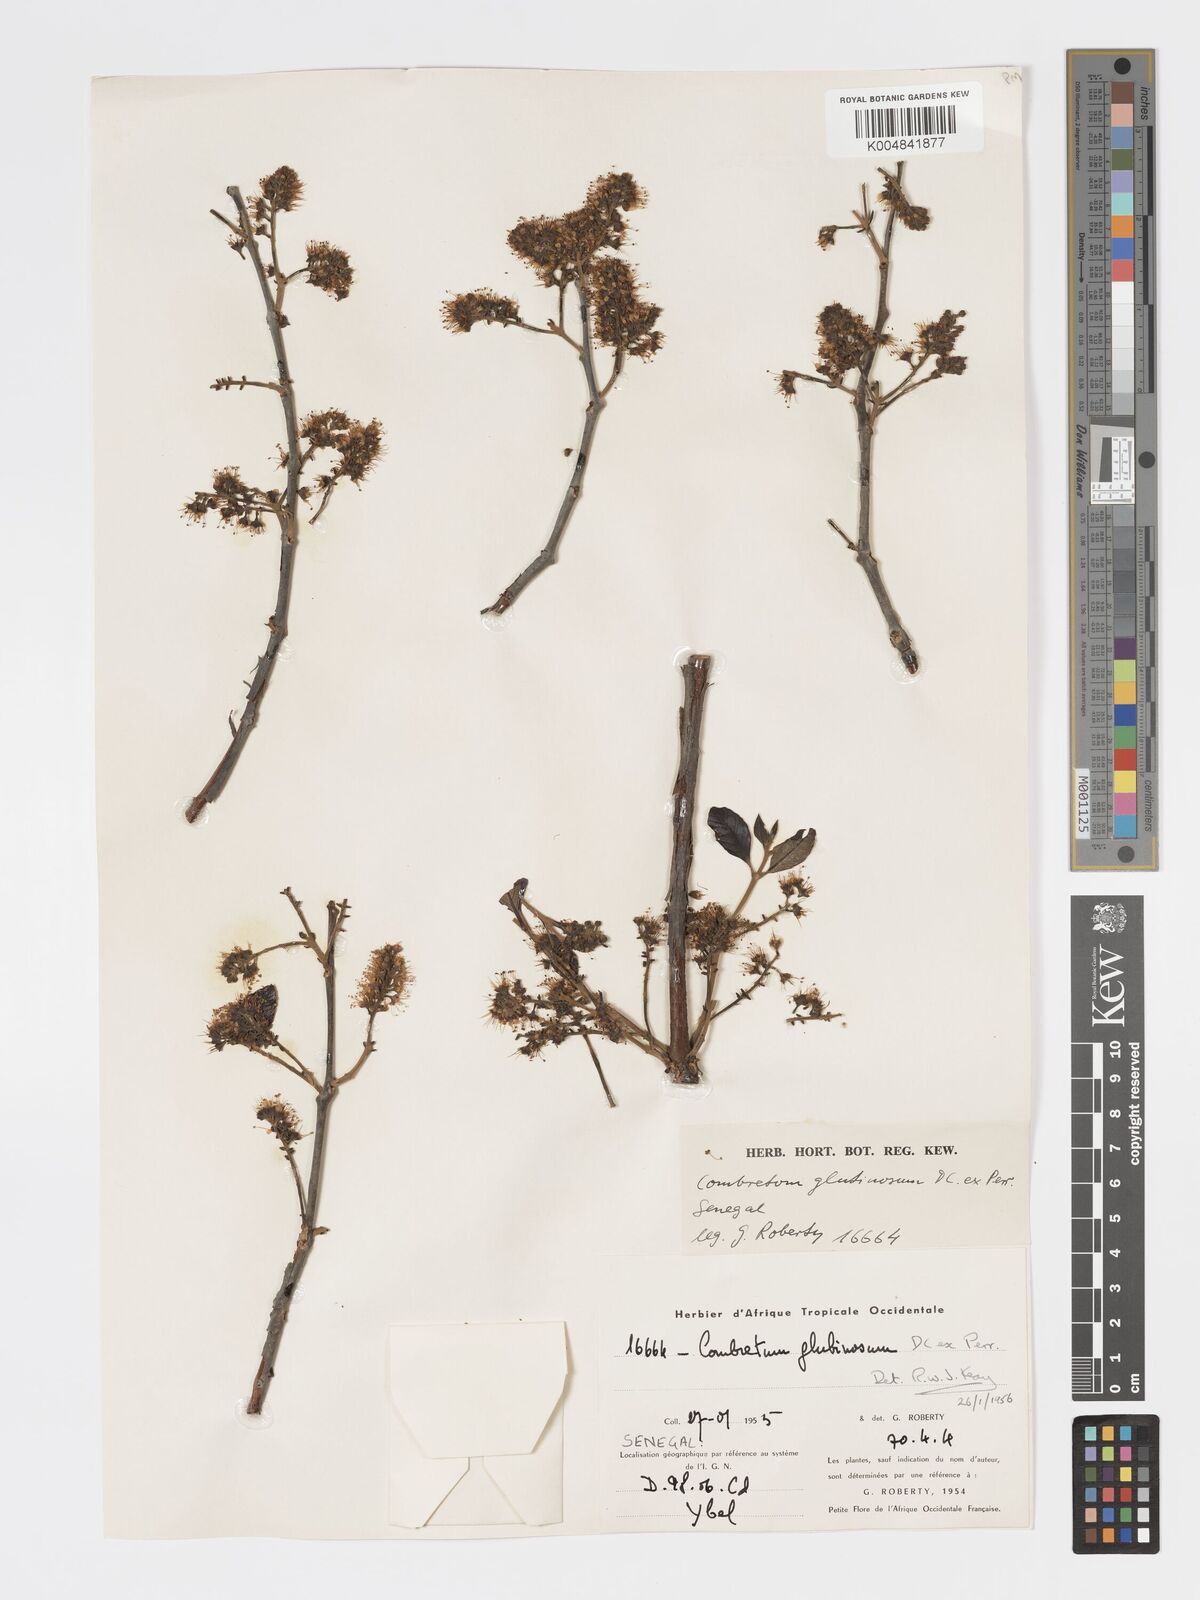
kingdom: Plantae
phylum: Tracheophyta
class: Magnoliopsida
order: Myrtales
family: Combretaceae
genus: Combretum
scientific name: Combretum
